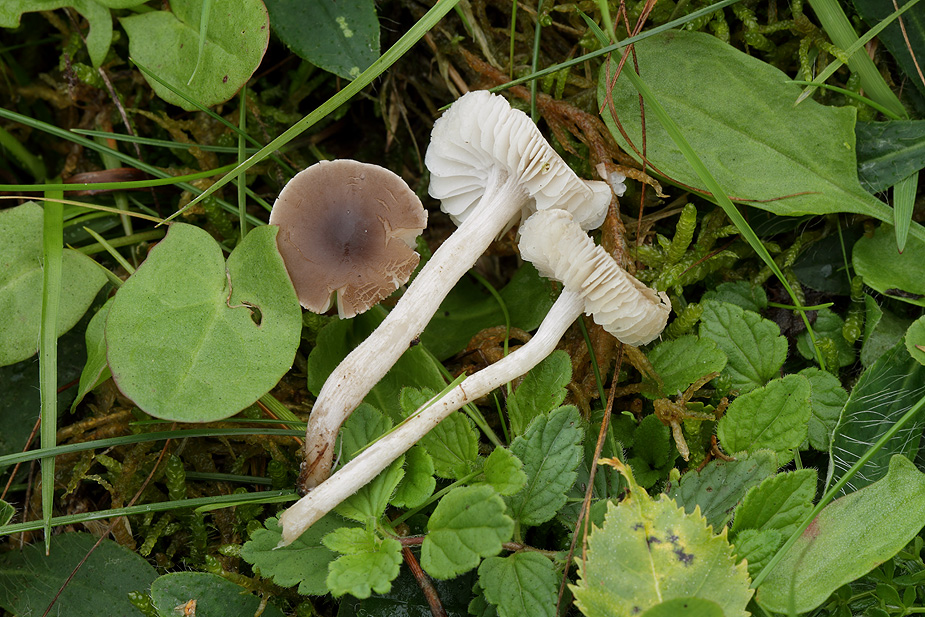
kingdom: Fungi
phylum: Basidiomycota
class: Agaricomycetes
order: Agaricales
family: Tricholomataceae
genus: Dermoloma
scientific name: Dermoloma cuneifolium
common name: eng-nonnehat
